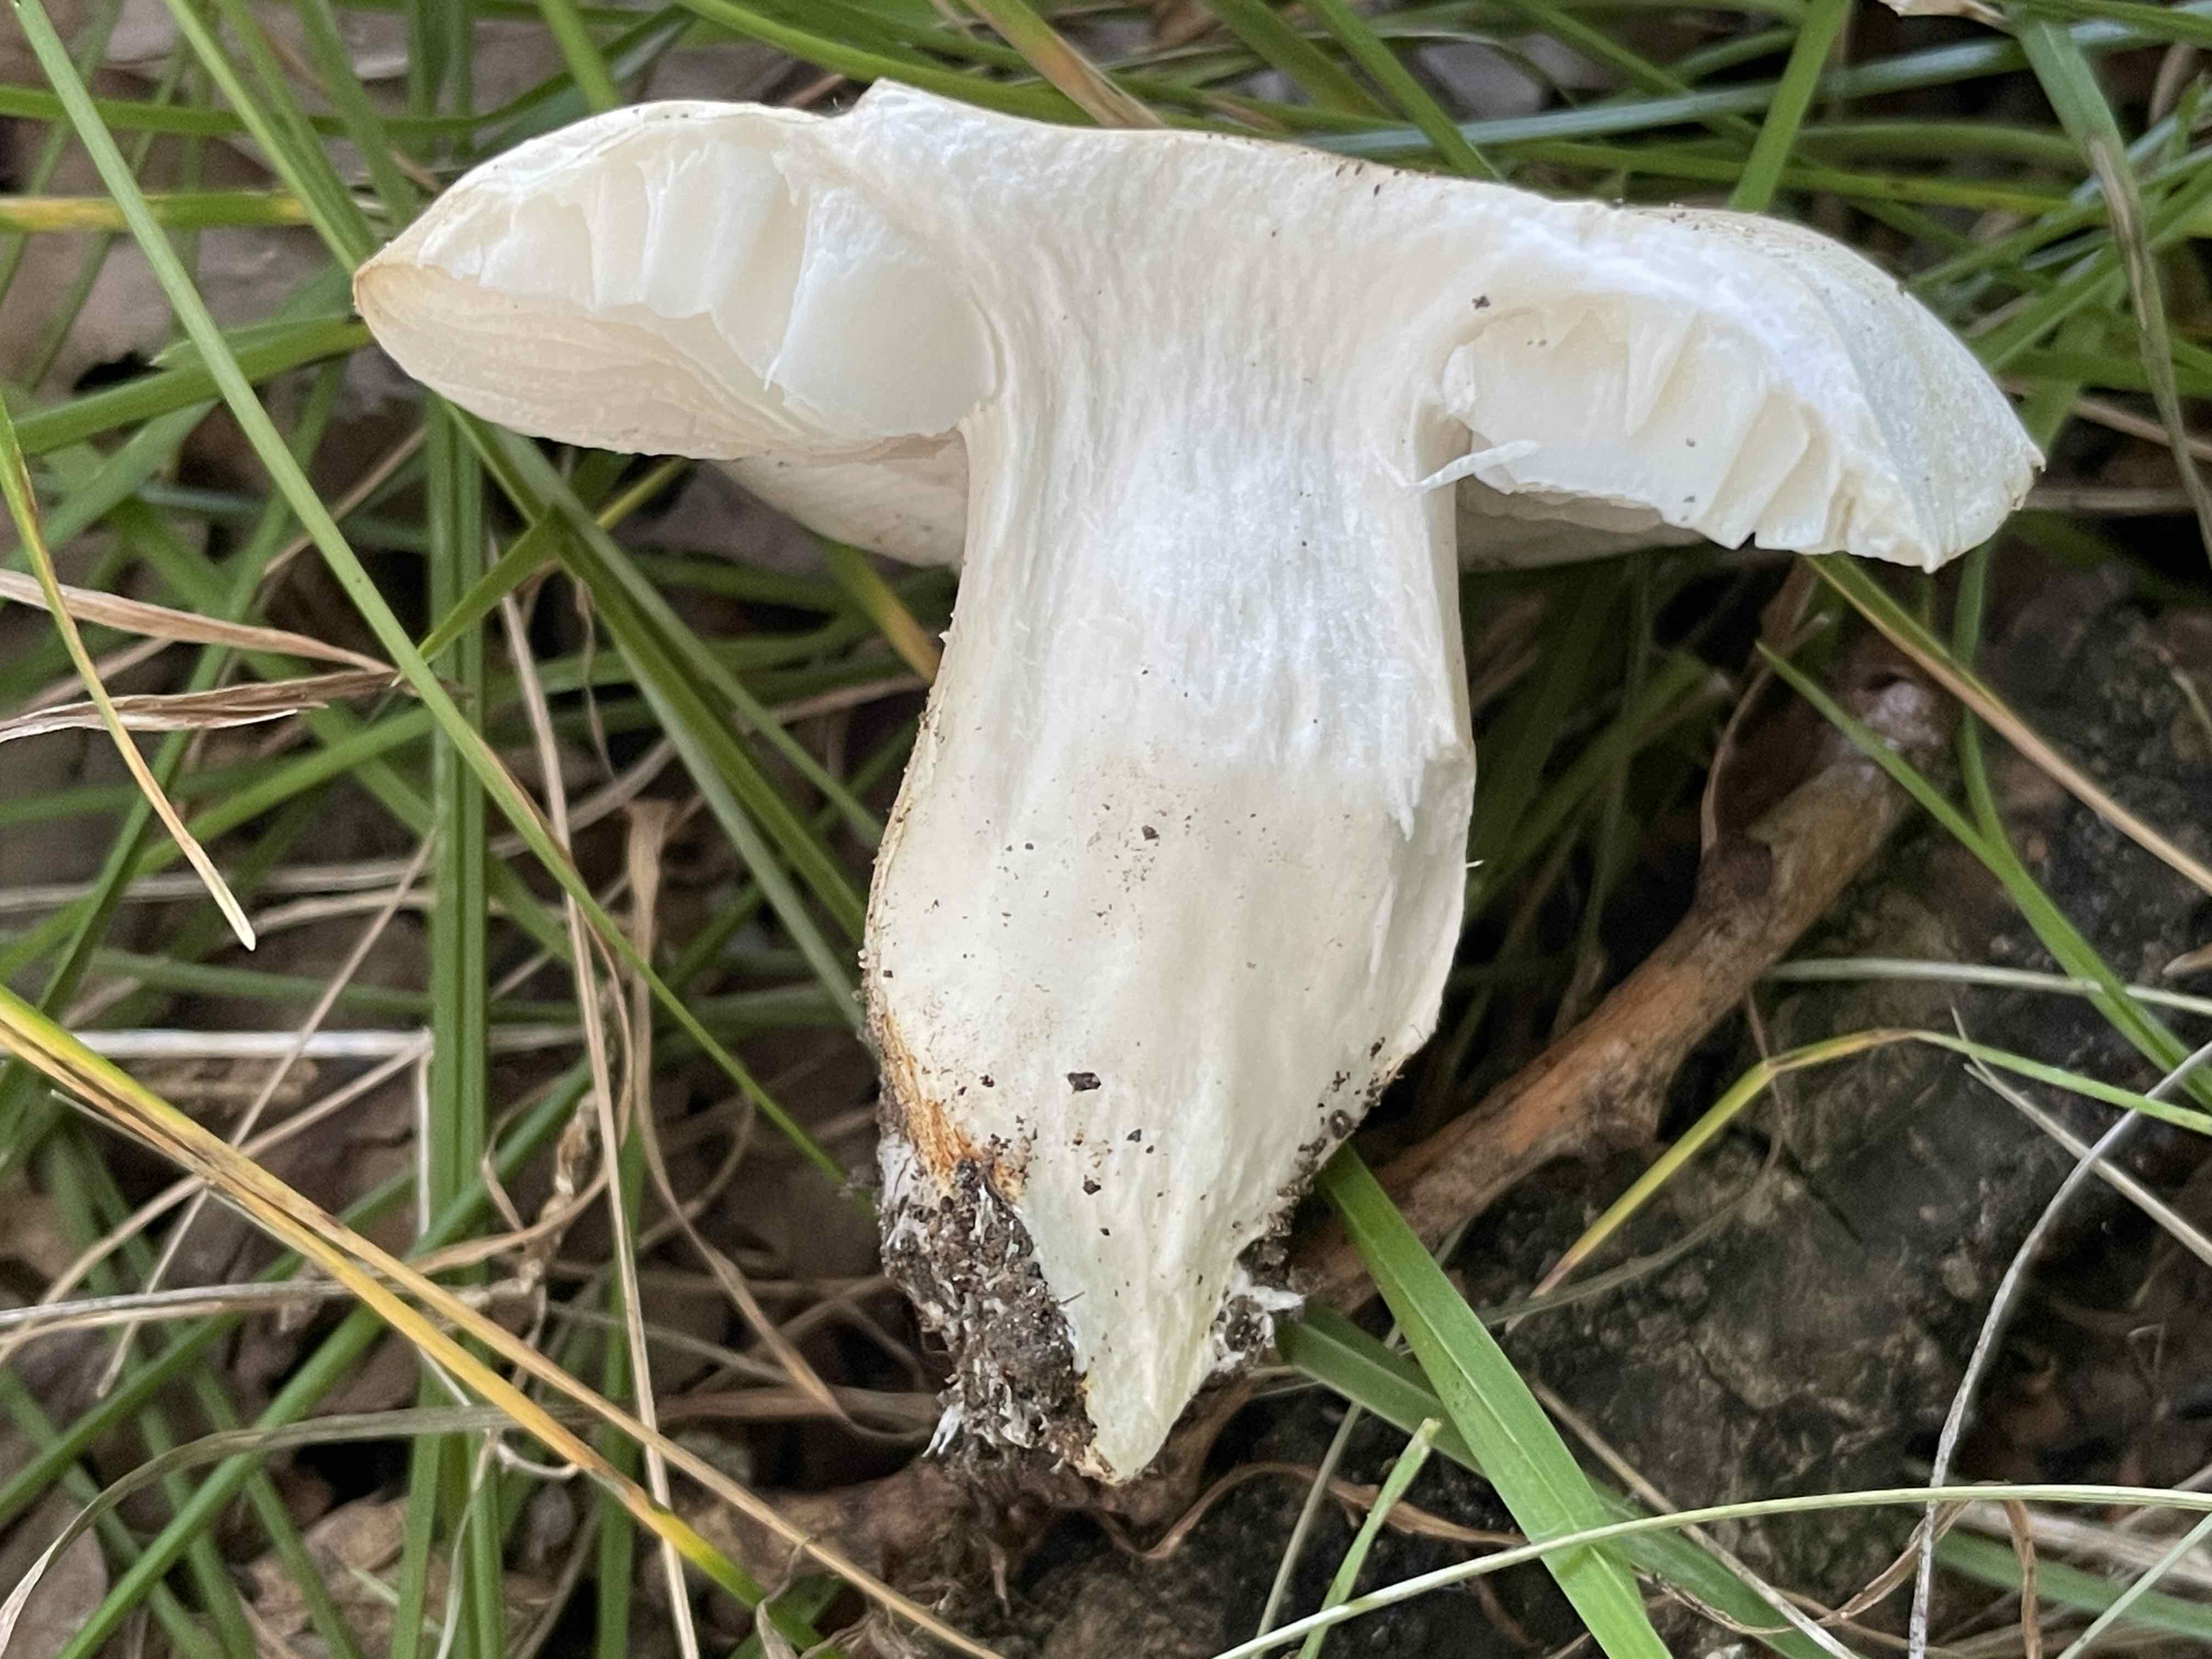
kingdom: Fungi
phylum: Basidiomycota
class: Agaricomycetes
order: Agaricales
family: Tricholomataceae
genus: Tricholoma
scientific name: Tricholoma album
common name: honning-ridderhat
